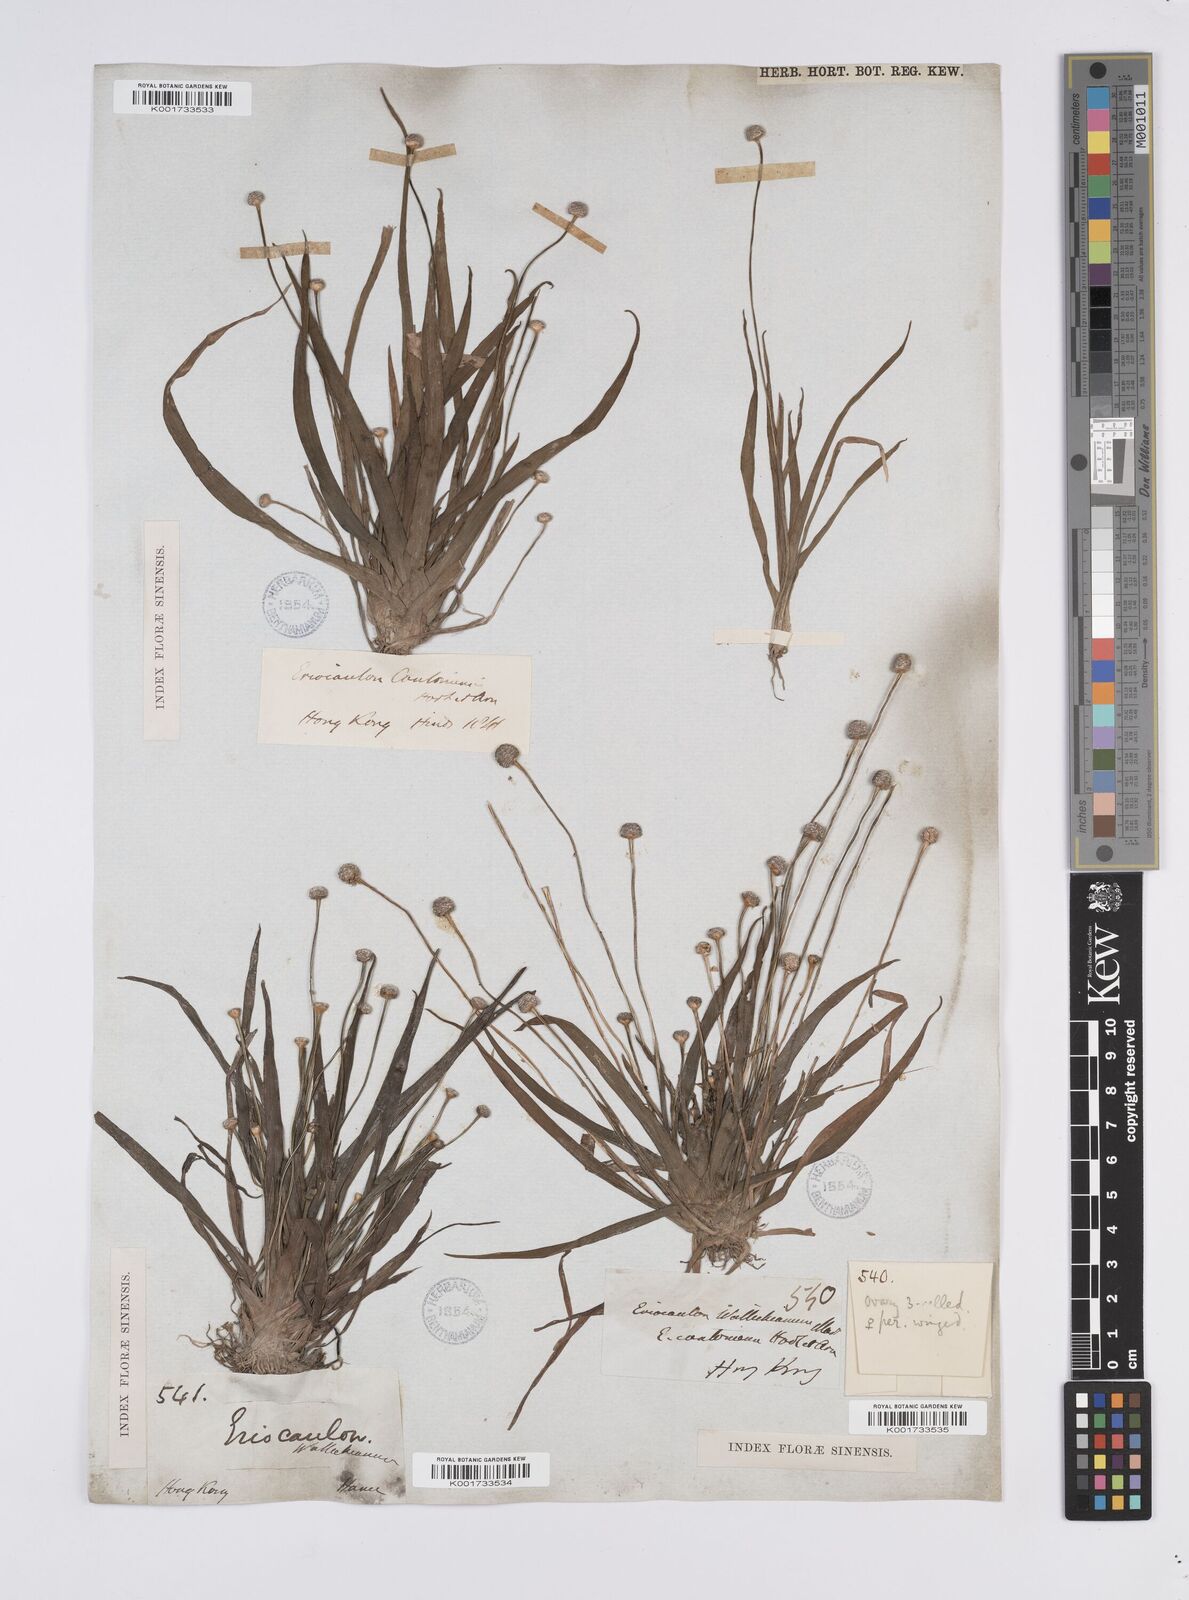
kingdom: Plantae
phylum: Tracheophyta
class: Liliopsida
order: Poales
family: Eriocaulaceae
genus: Eriocaulon
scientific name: Eriocaulon sexangulare
